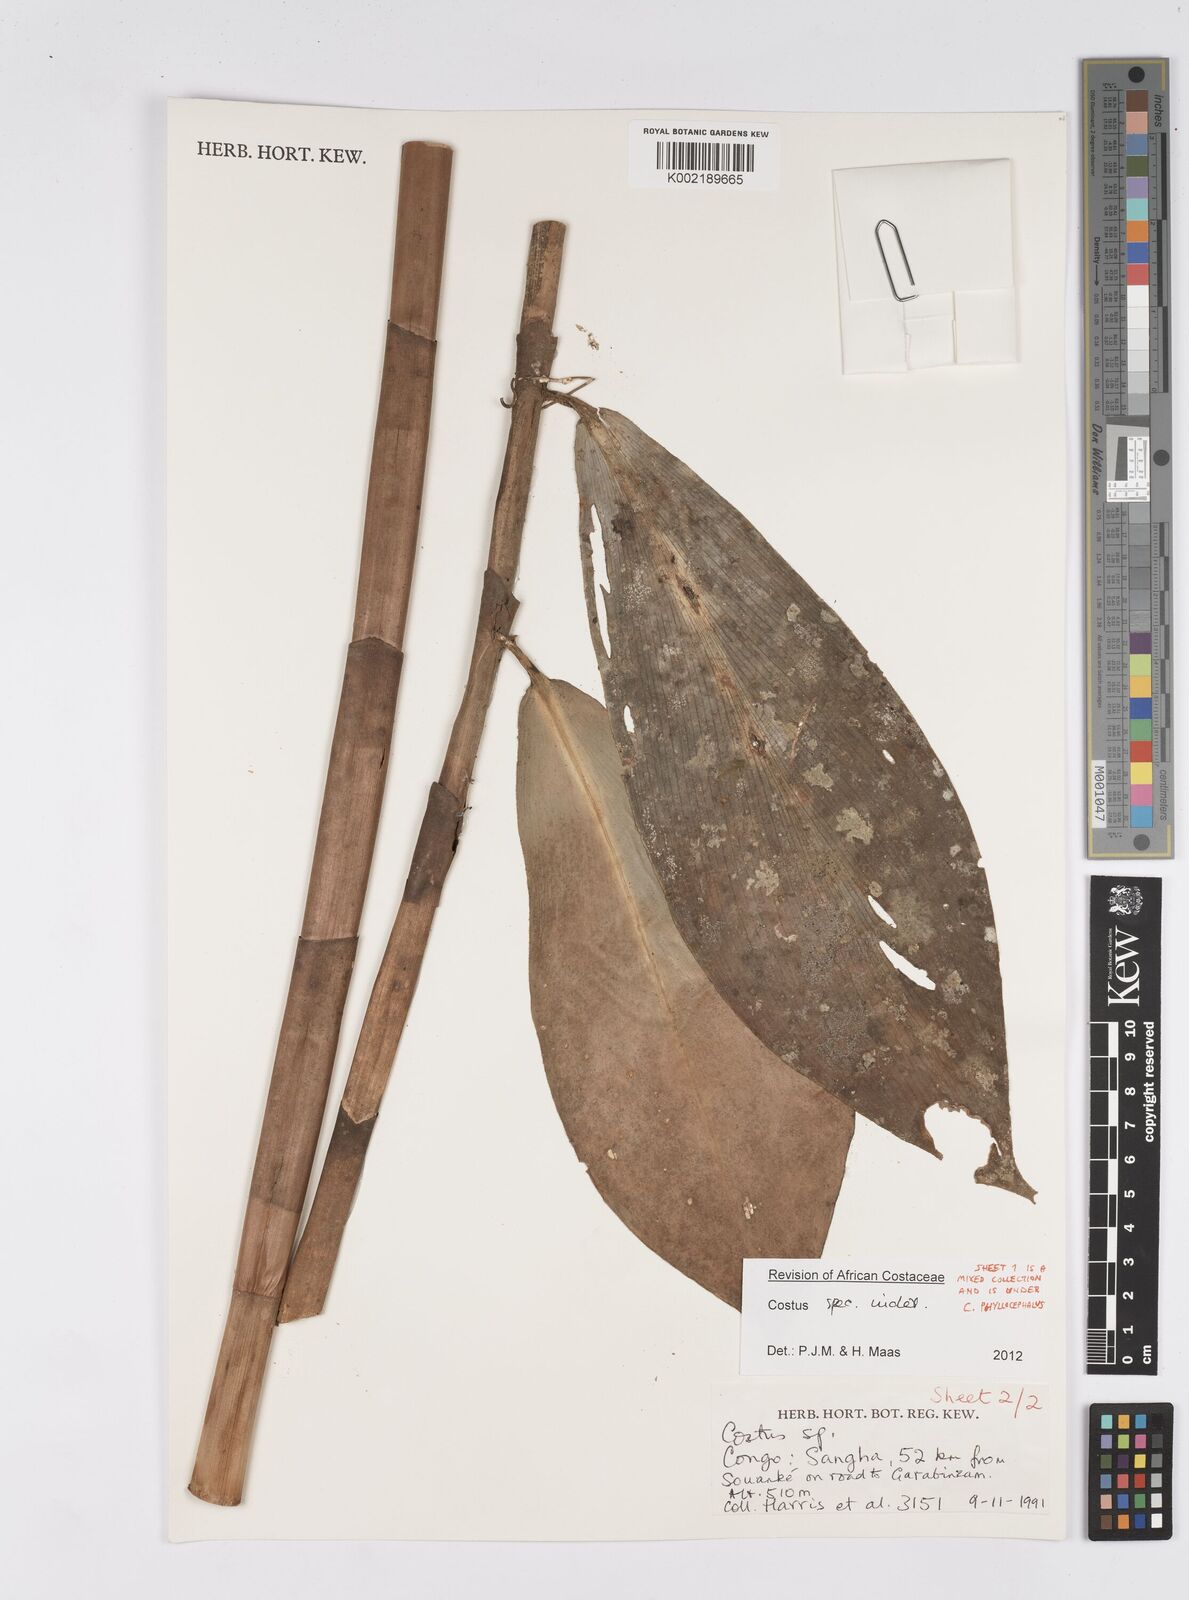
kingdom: Plantae
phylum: Tracheophyta
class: Liliopsida
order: Zingiberales
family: Costaceae
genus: Costus
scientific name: Costus
